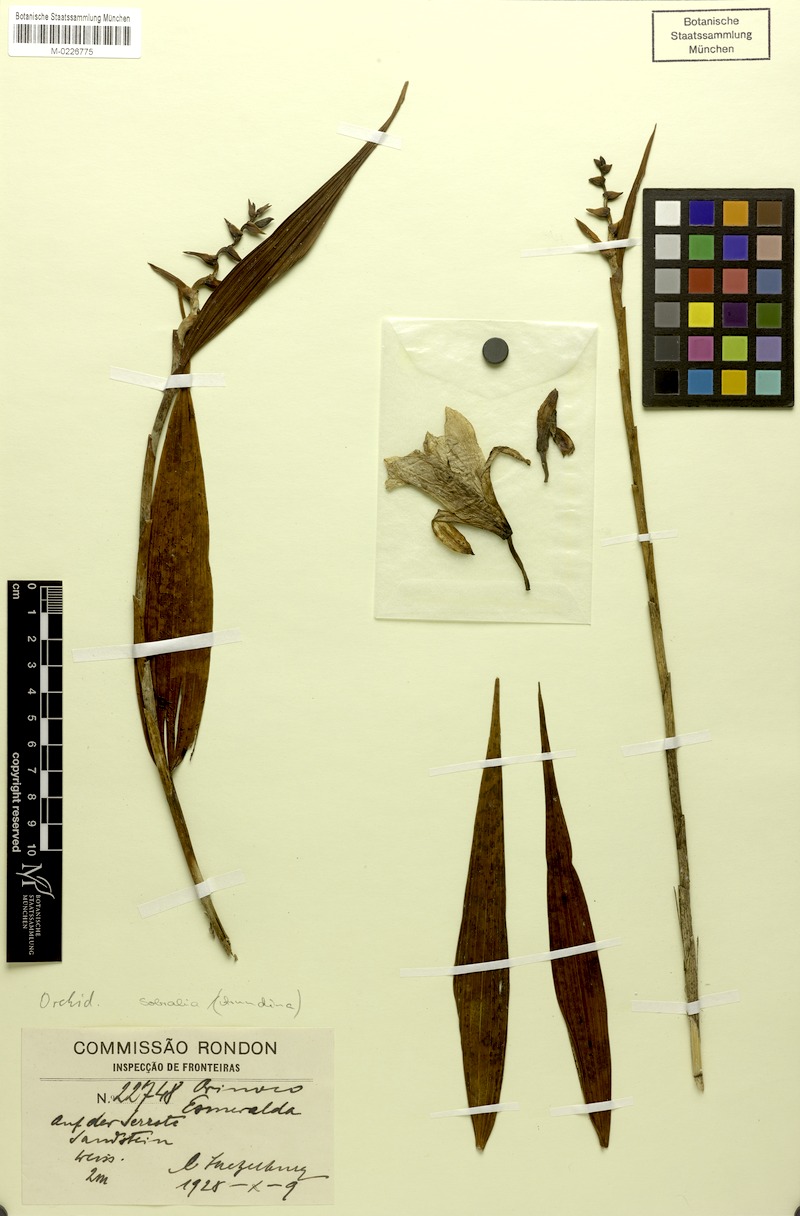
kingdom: Plantae
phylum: Tracheophyta
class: Liliopsida
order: Asparagales
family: Orchidaceae
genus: Sobralia
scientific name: Sobralia
